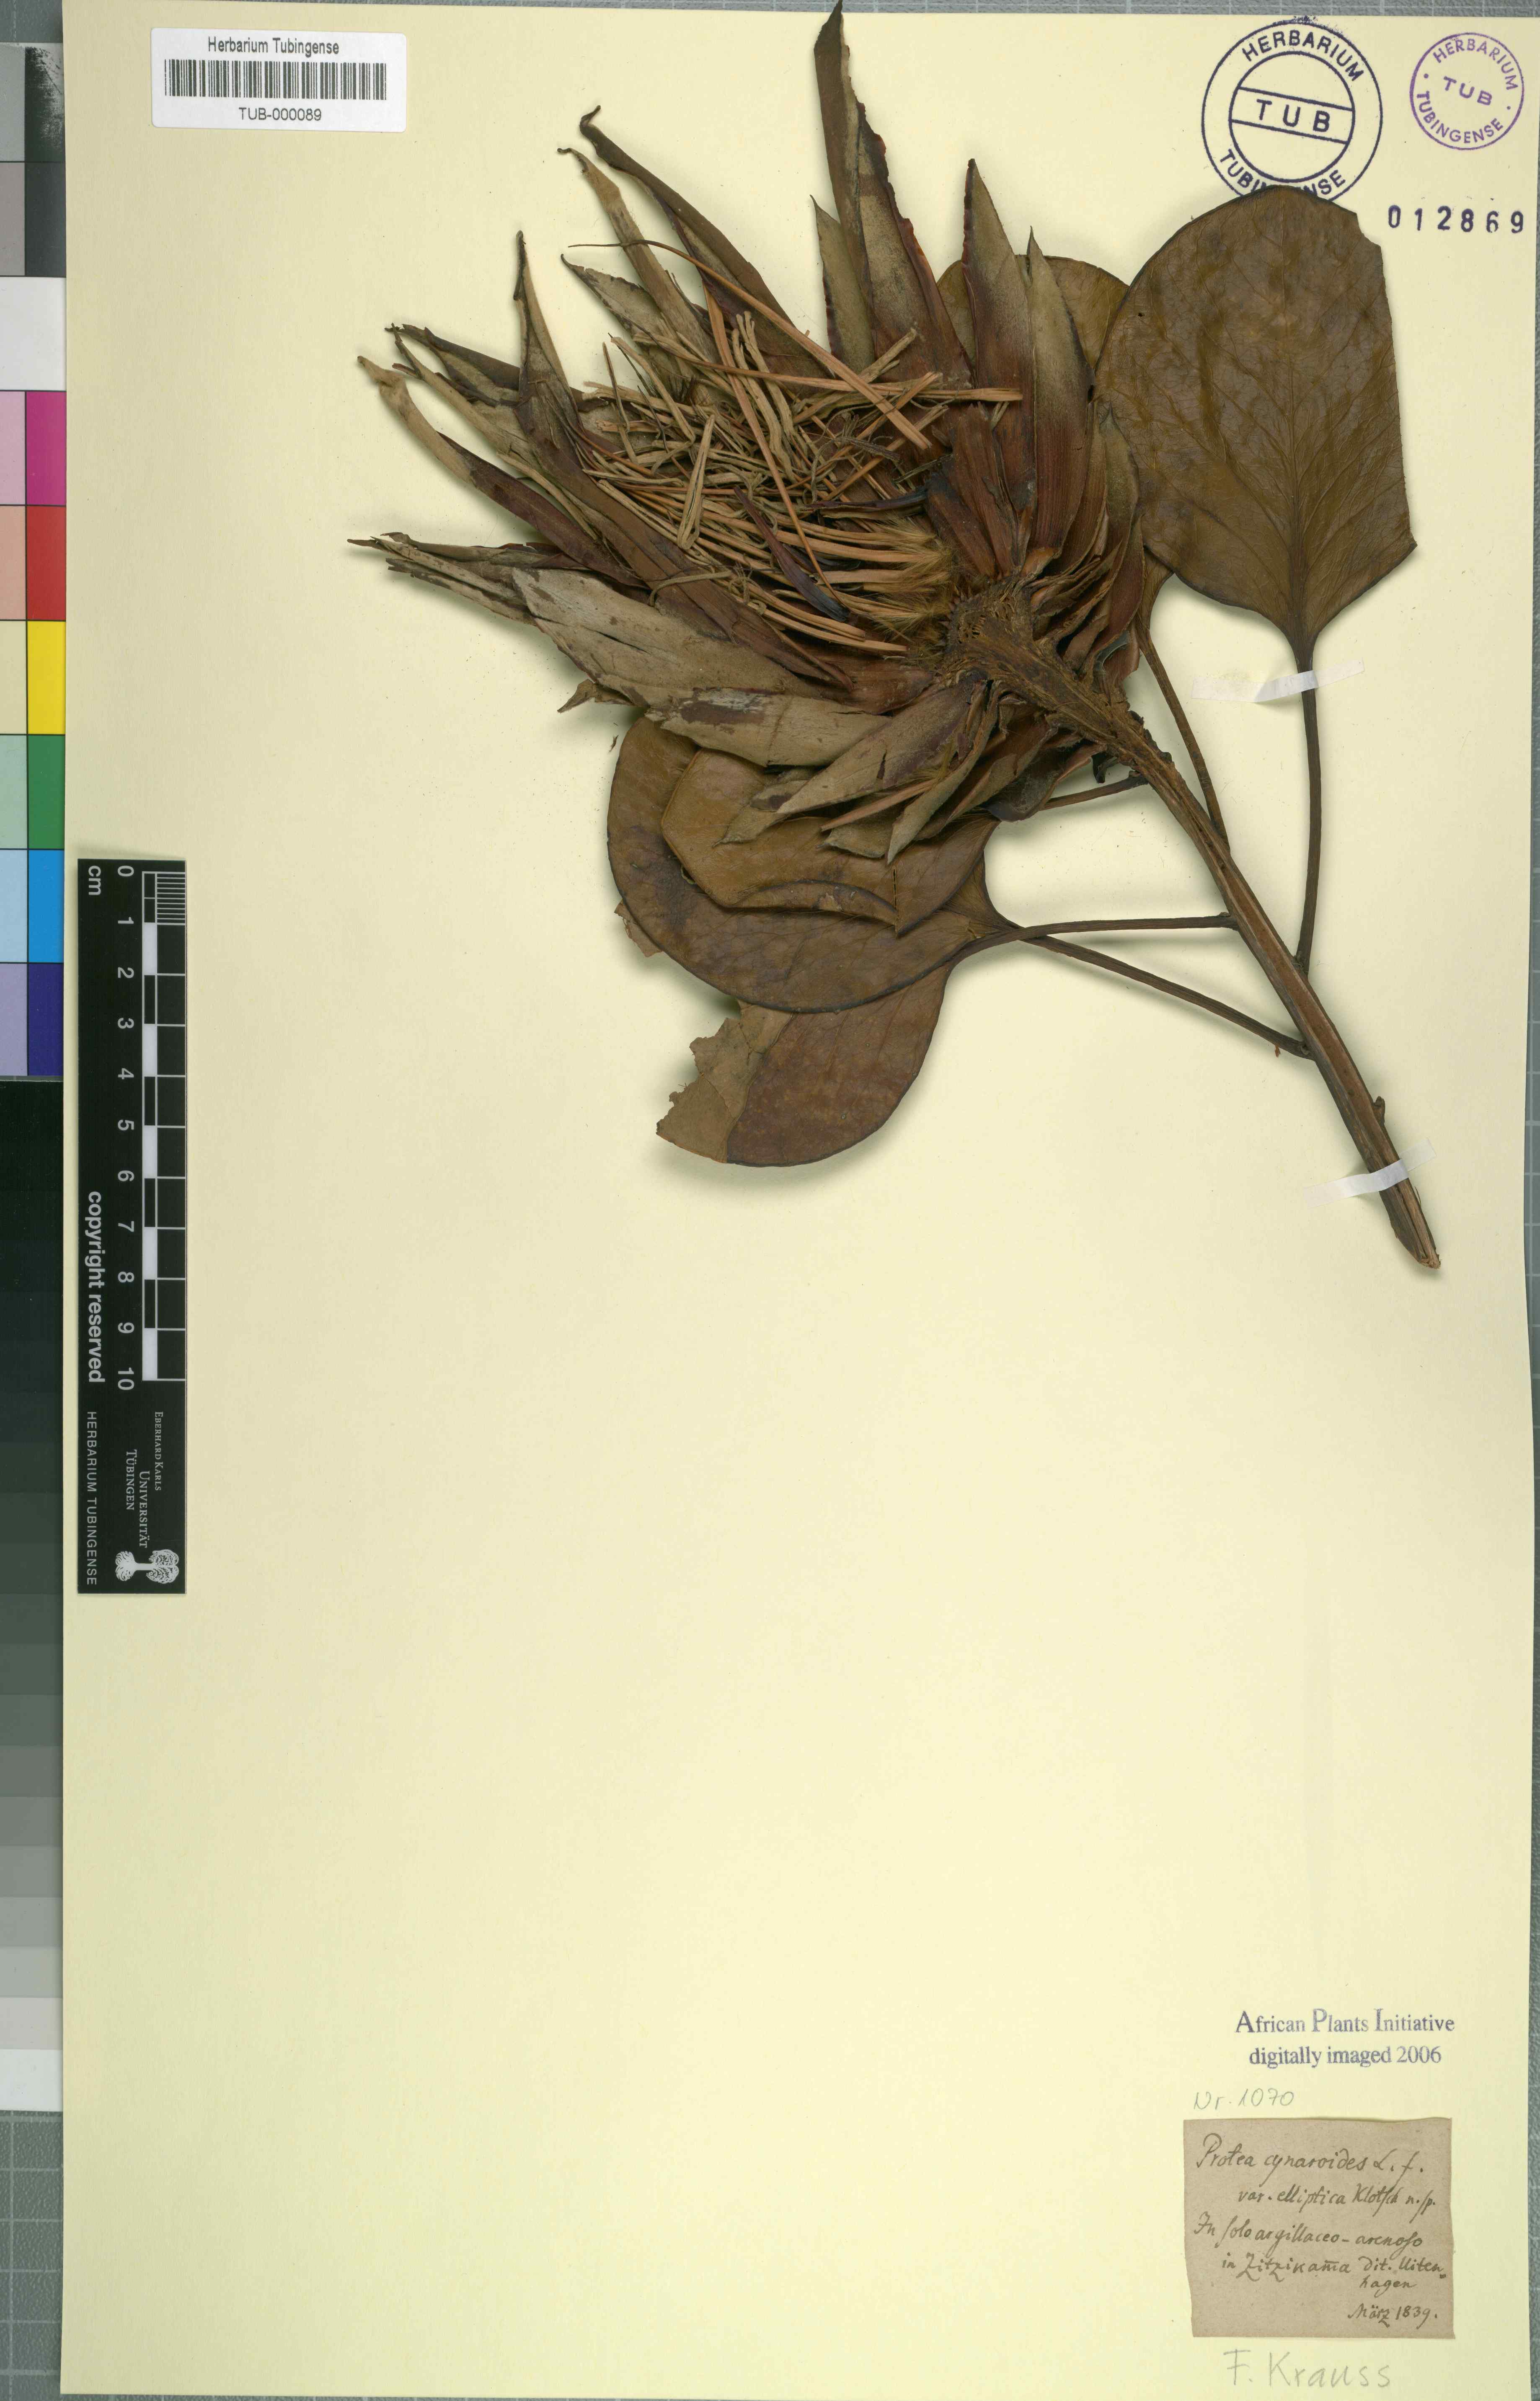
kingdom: Plantae
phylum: Tracheophyta
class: Magnoliopsida
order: Proteales
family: Proteaceae
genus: Protea
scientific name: Protea cynaroides
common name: King protea
